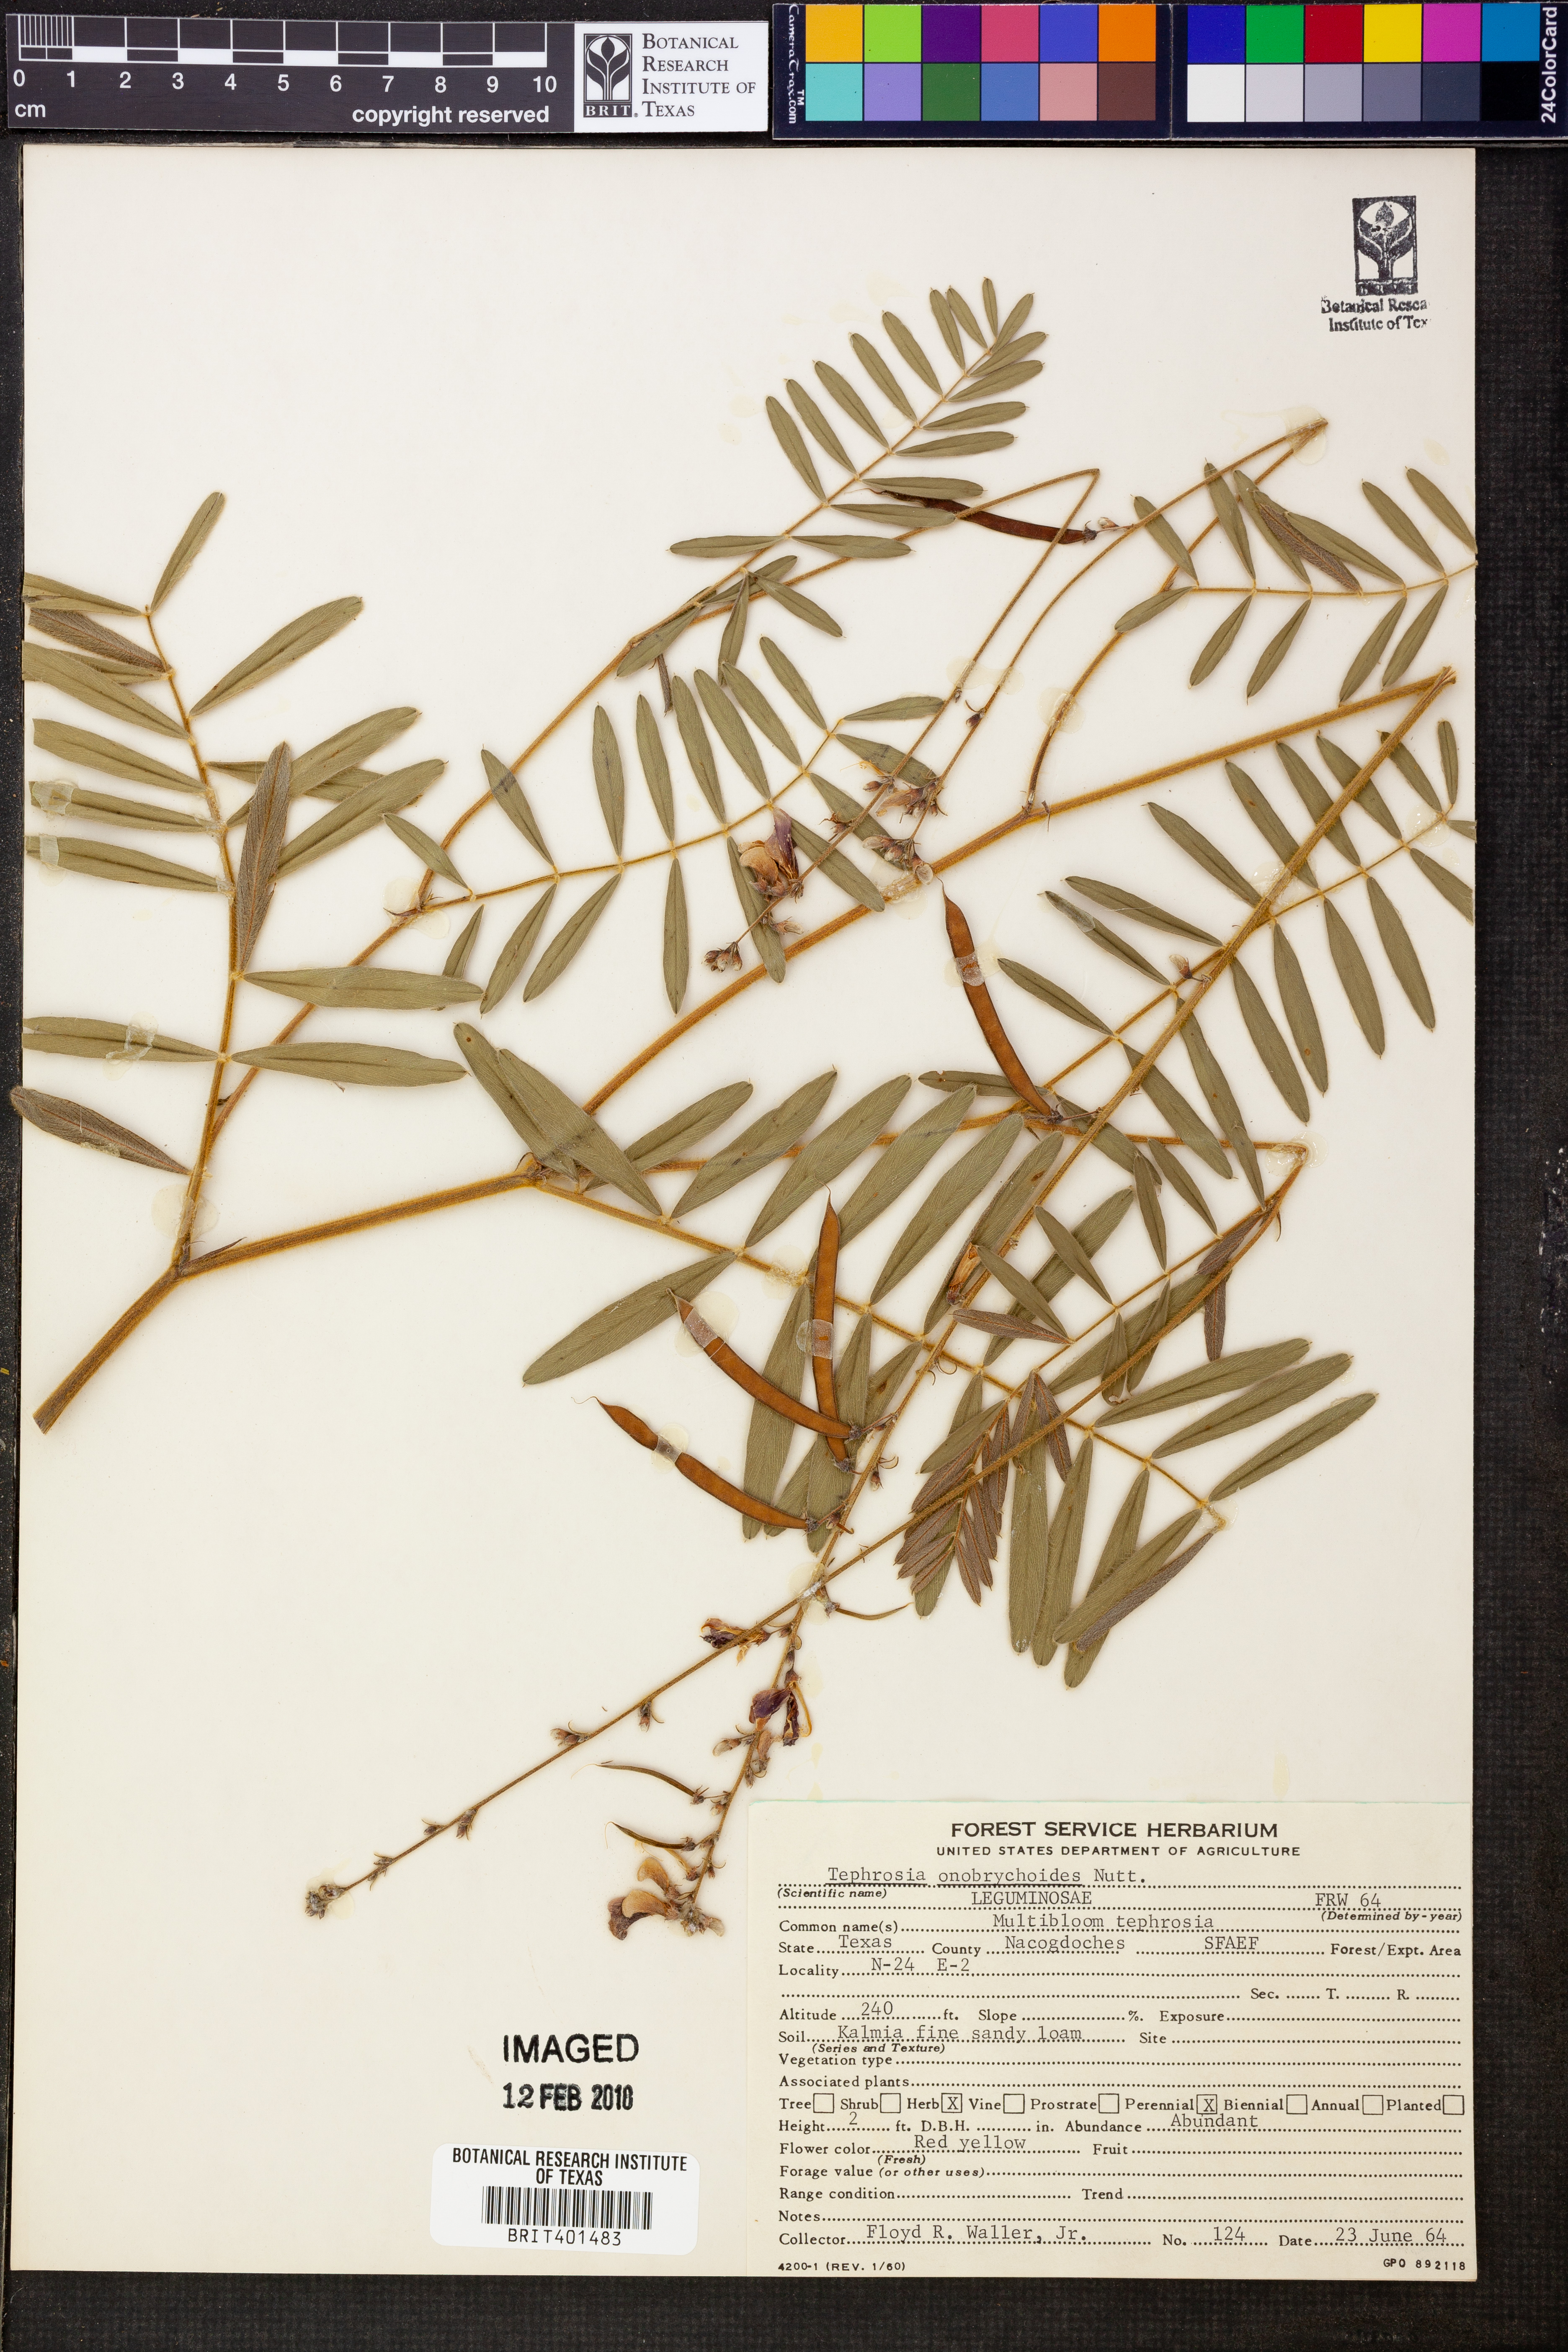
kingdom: Plantae
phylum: Tracheophyta
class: Magnoliopsida
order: Fabales
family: Fabaceae
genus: Tephrosia
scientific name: Tephrosia onobrychoides
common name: Multi-bloom hoary-pea
